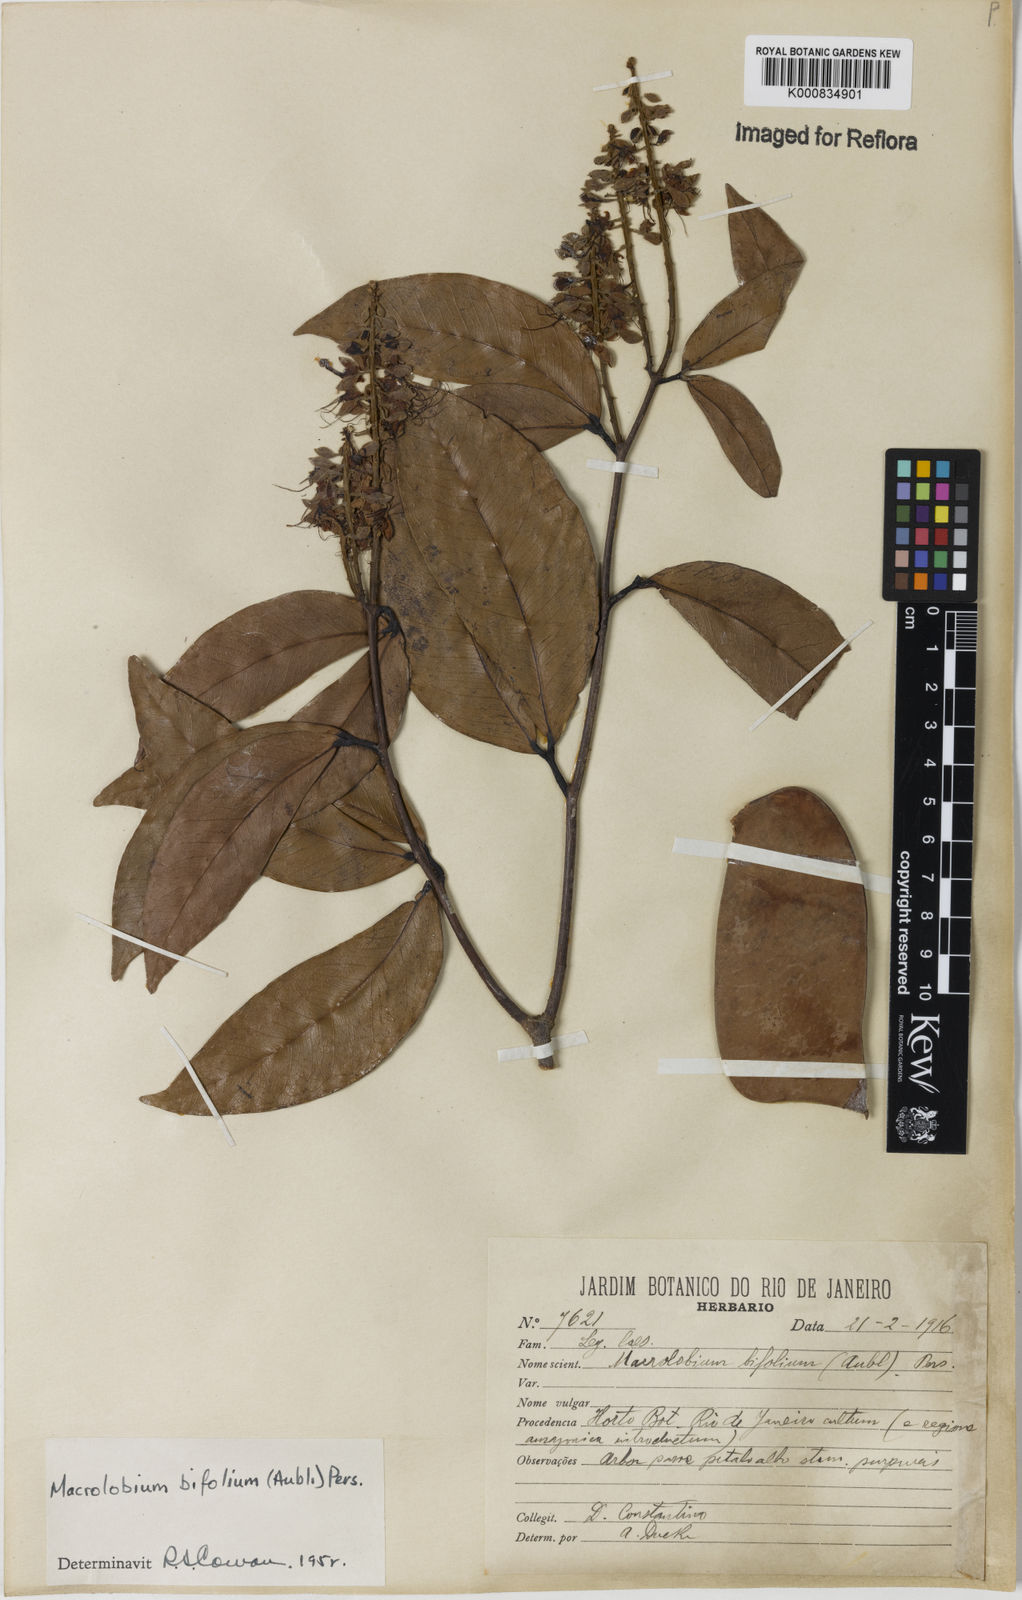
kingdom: Plantae
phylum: Tracheophyta
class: Magnoliopsida
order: Fabales
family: Fabaceae
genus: Macrolobium
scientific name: Macrolobium bifolium
